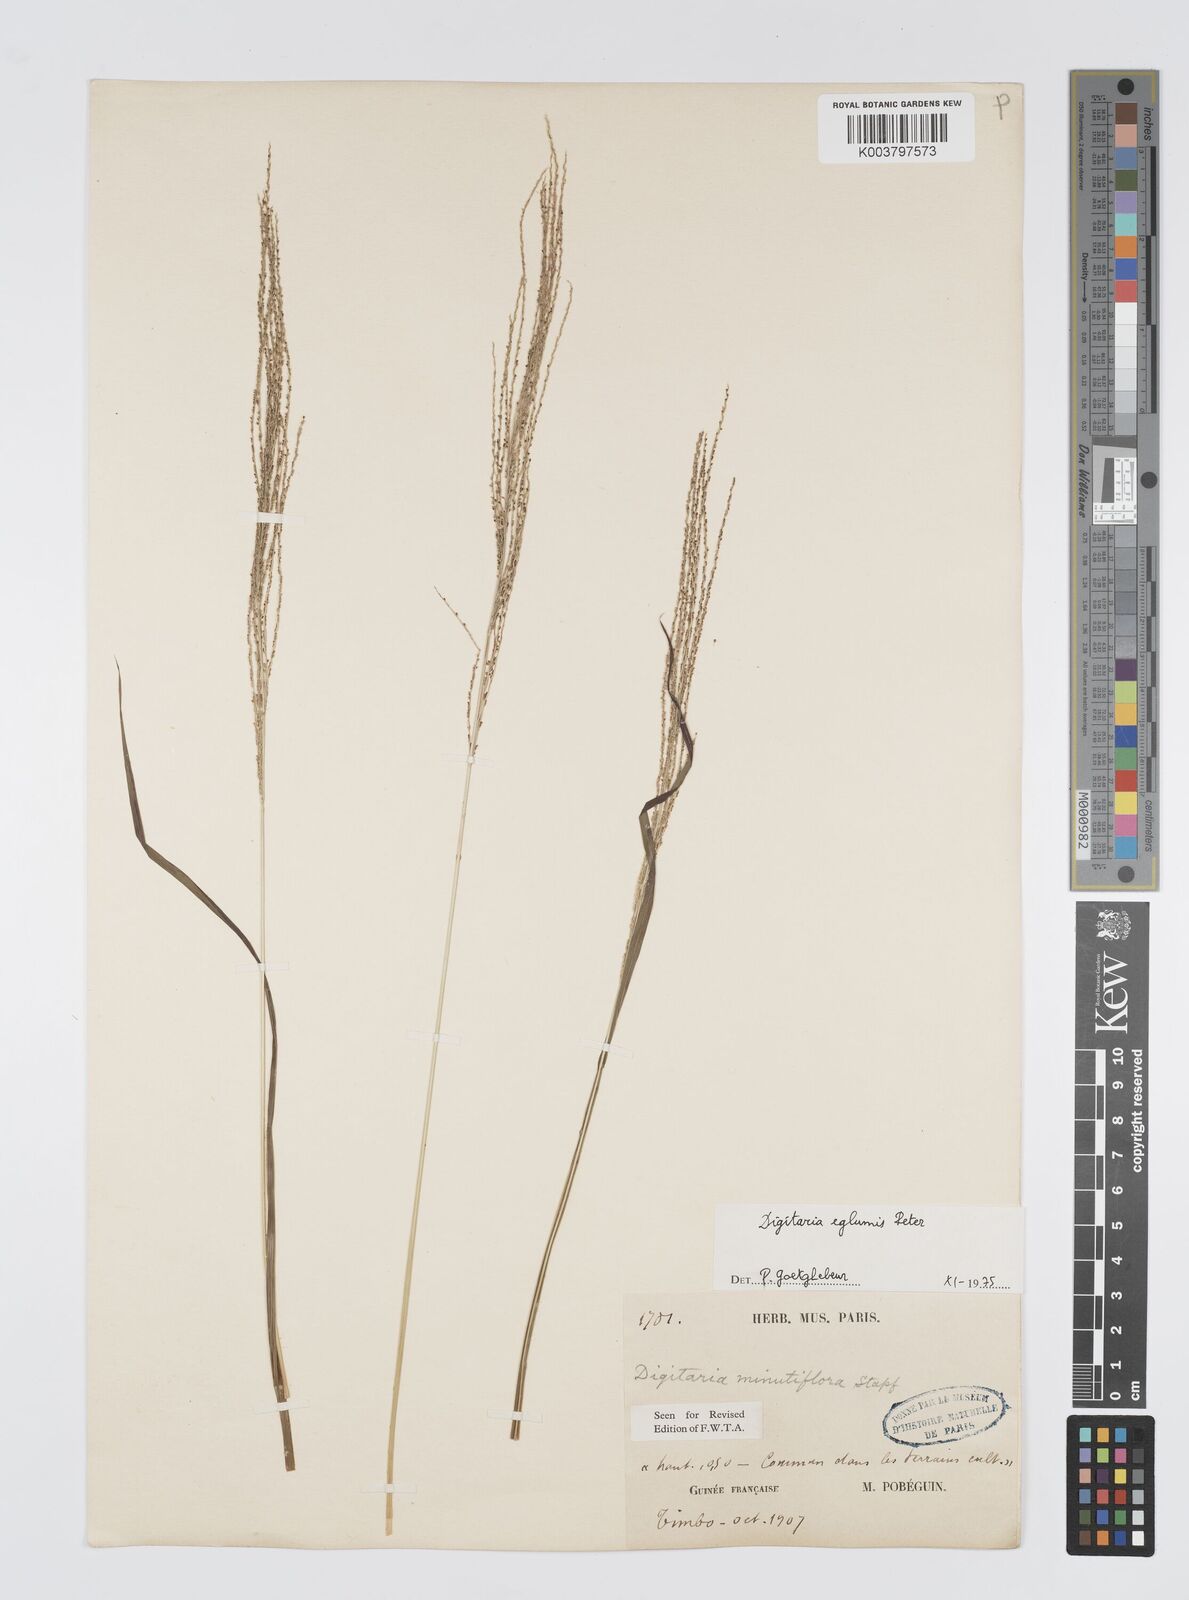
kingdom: Plantae
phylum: Tracheophyta
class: Liliopsida
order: Poales
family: Poaceae
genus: Digitaria
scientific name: Digitaria pseudodiagonalis
